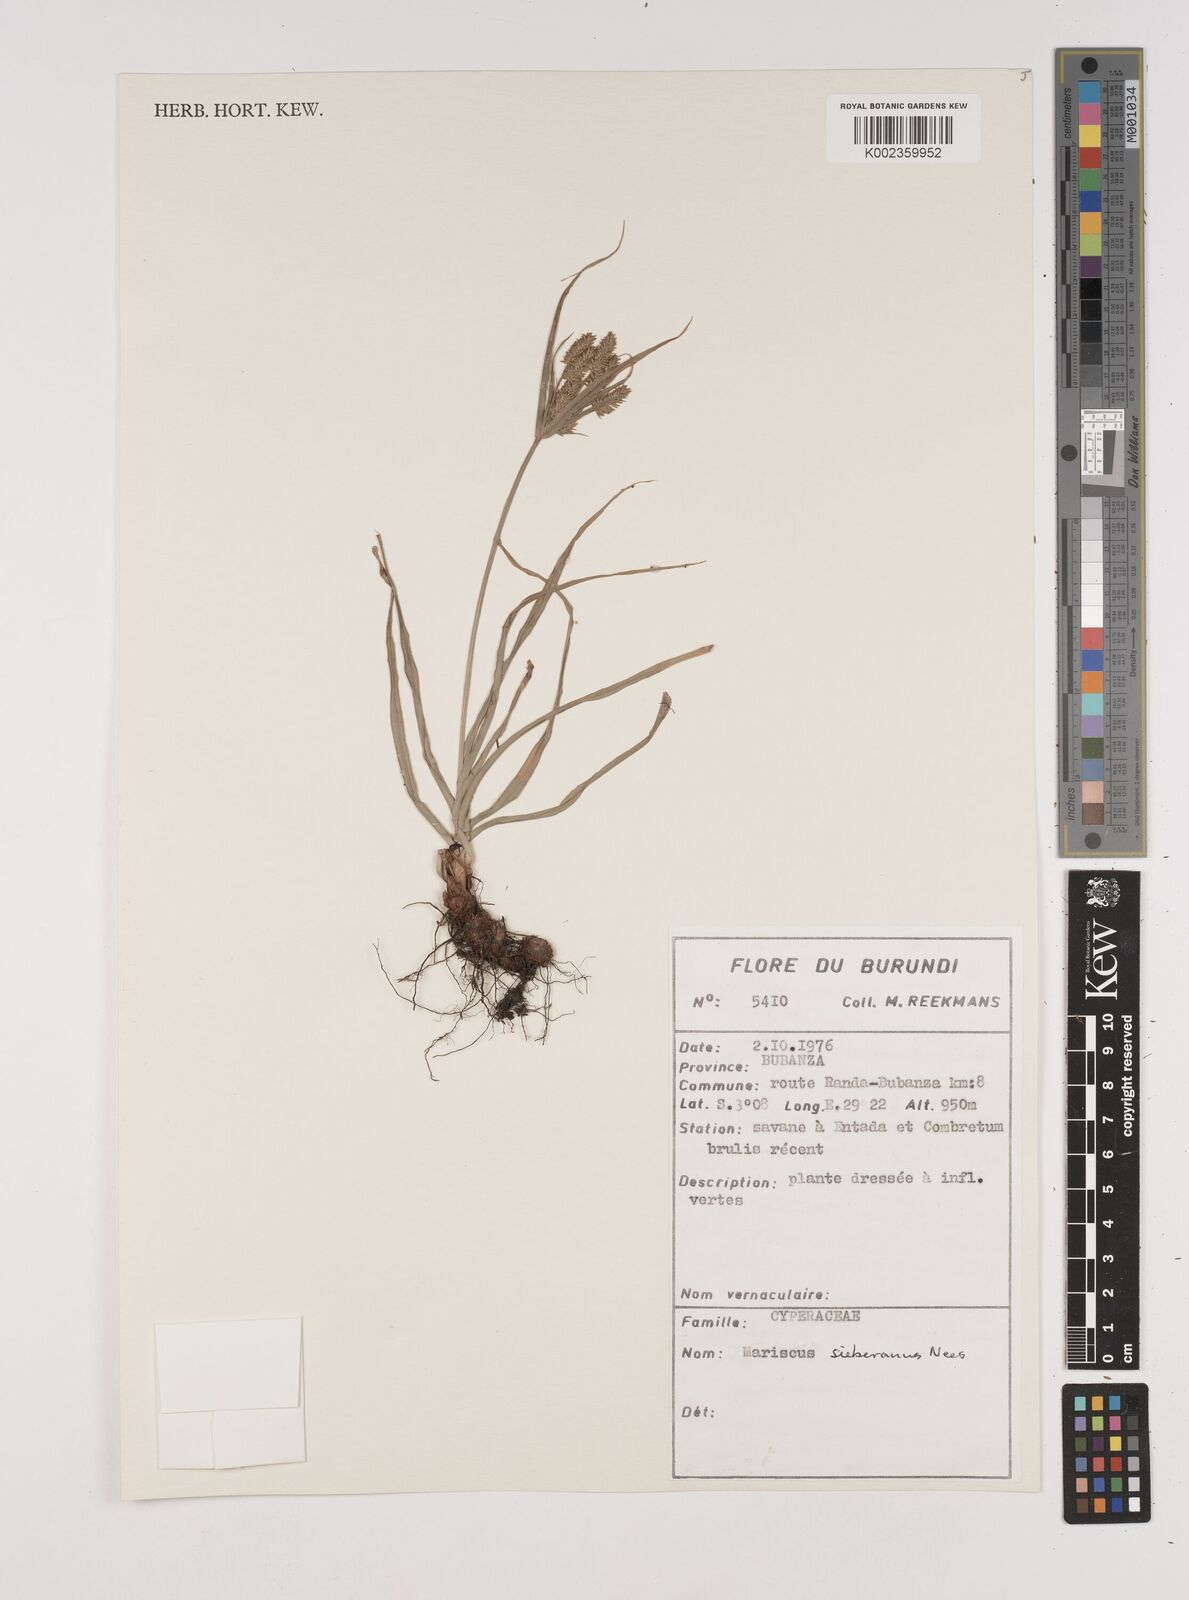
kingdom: Plantae
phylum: Tracheophyta
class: Liliopsida
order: Poales
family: Cyperaceae
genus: Cyperus
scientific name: Cyperus cyperoides
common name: Pacific island flat sedge
